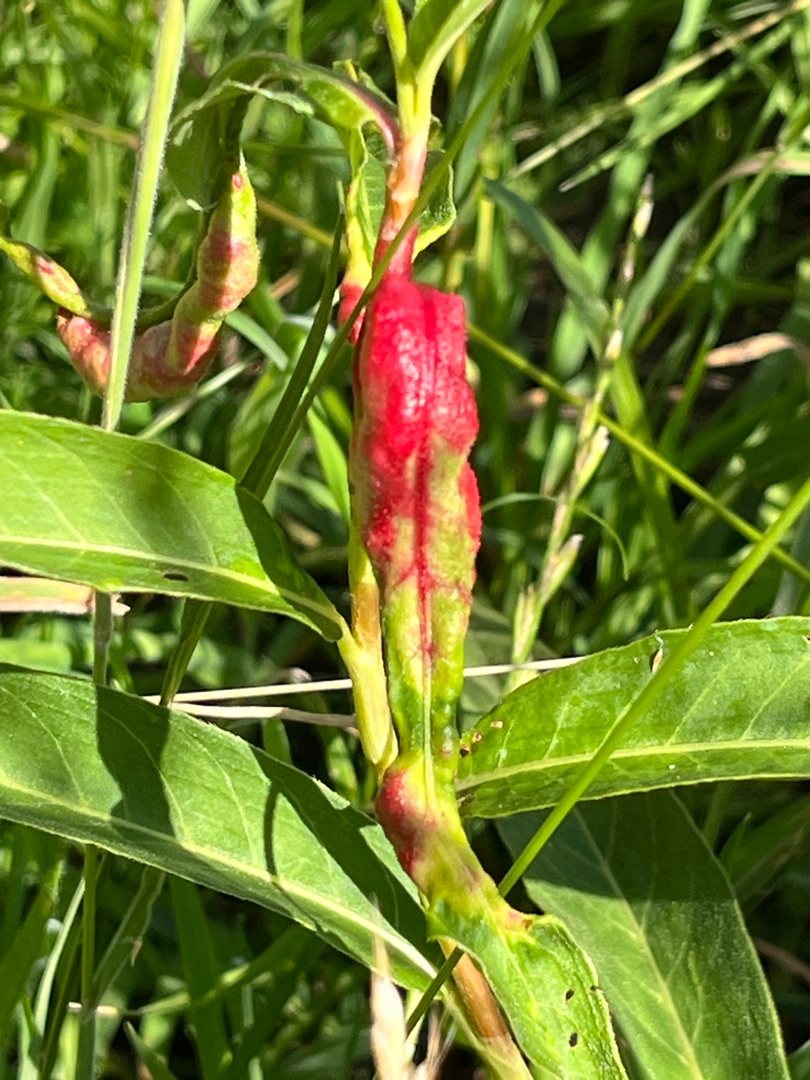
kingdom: Animalia
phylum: Arthropoda
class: Insecta
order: Diptera
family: Cecidomyiidae
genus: Wachtliella
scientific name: Wachtliella persicariae
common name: Pileurtgalmyg
